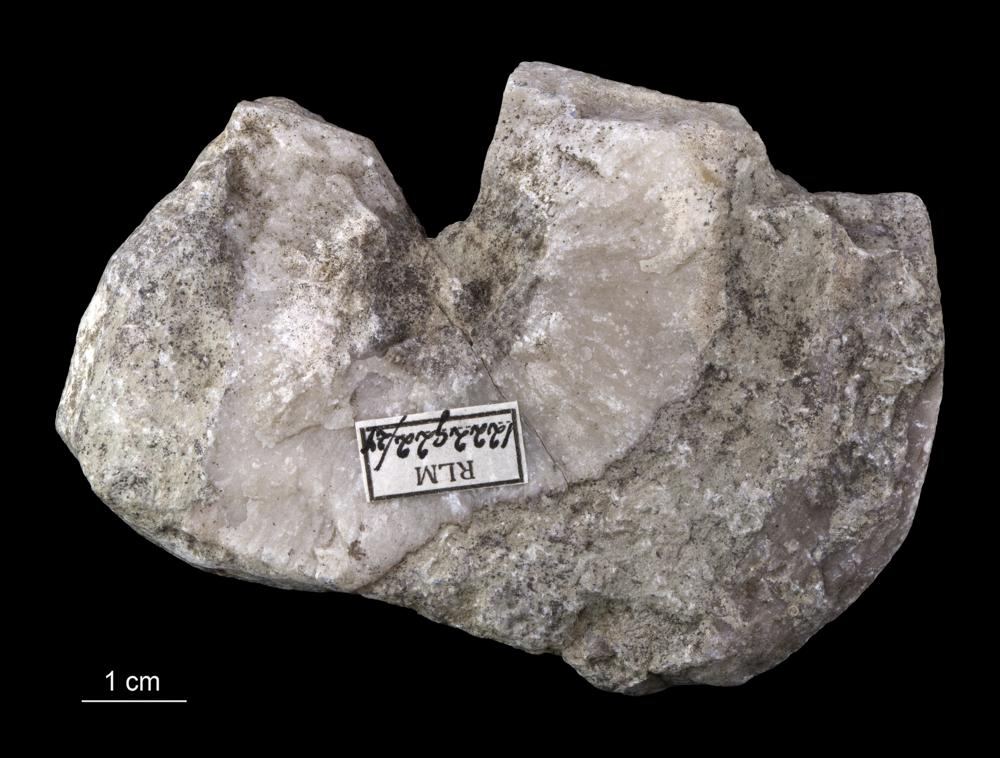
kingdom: Animalia
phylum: Cnidaria
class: Anthozoa
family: Kodonophyllidae
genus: Schlotheimophyllum
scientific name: Schlotheimophyllum
